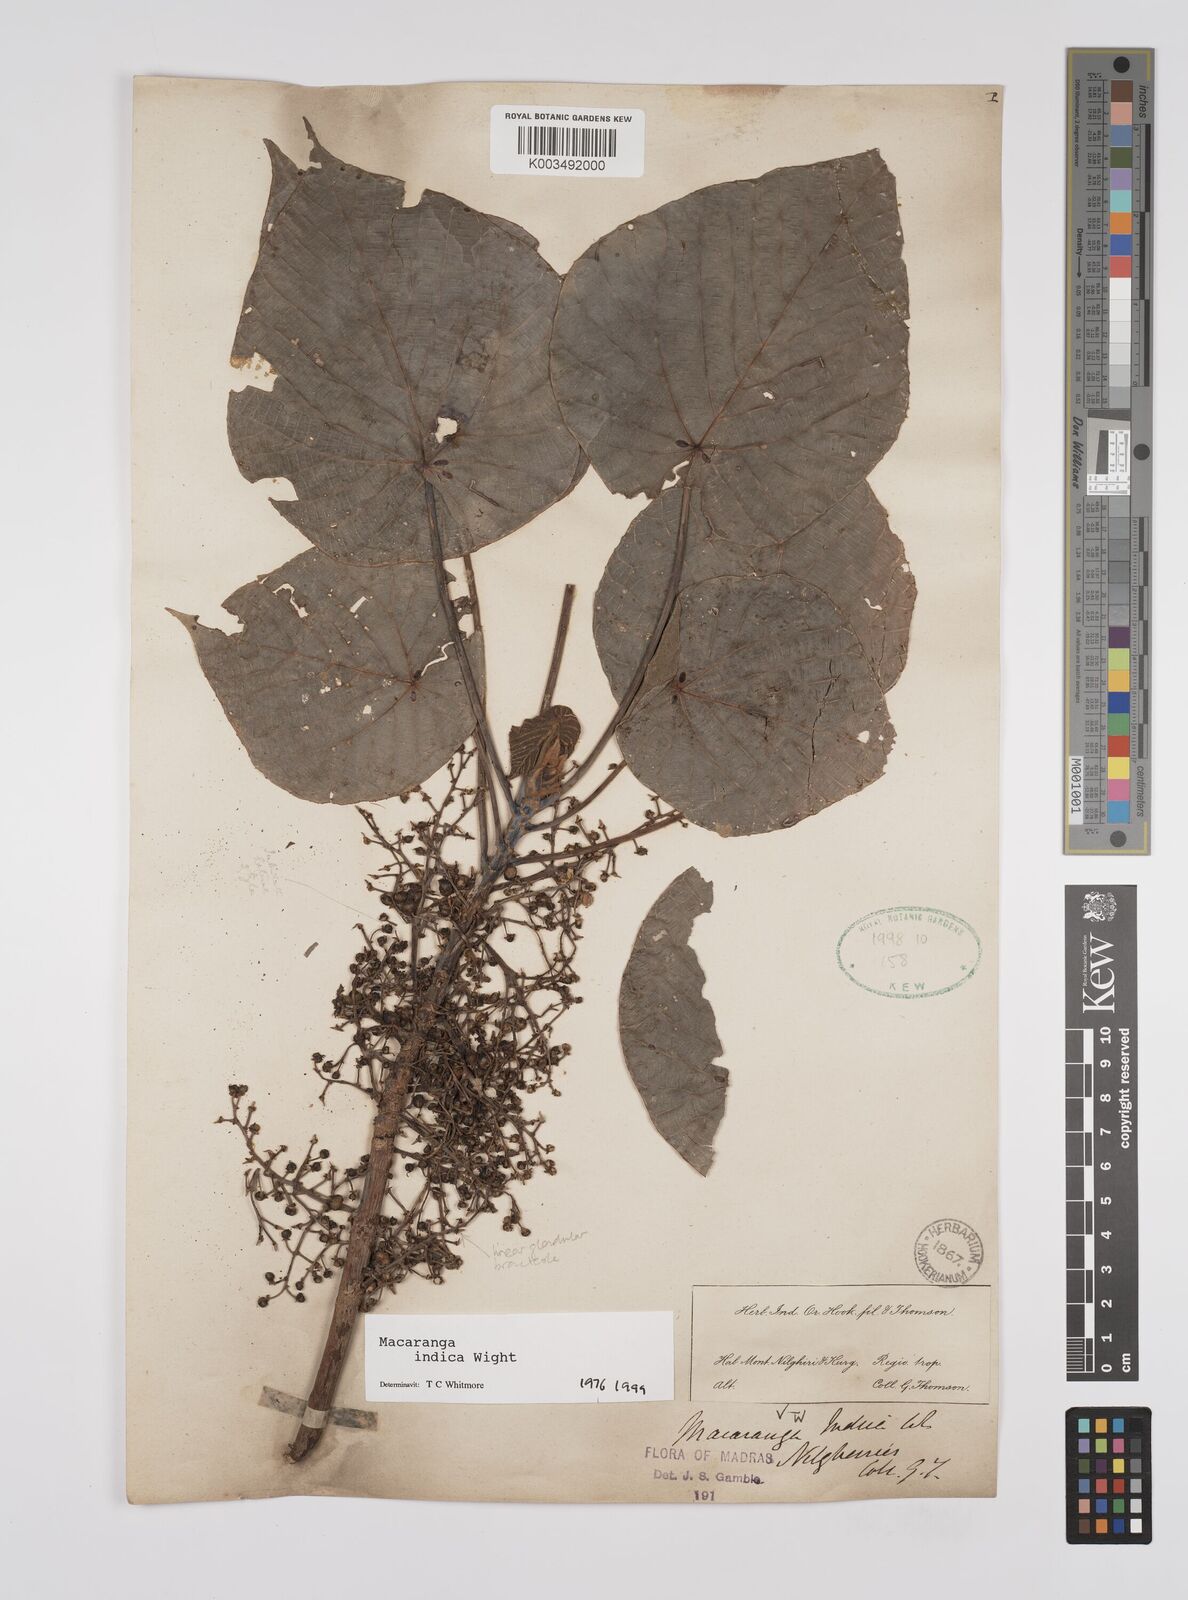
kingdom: Plantae
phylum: Tracheophyta
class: Magnoliopsida
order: Malpighiales
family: Euphorbiaceae
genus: Macaranga
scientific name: Macaranga indica
